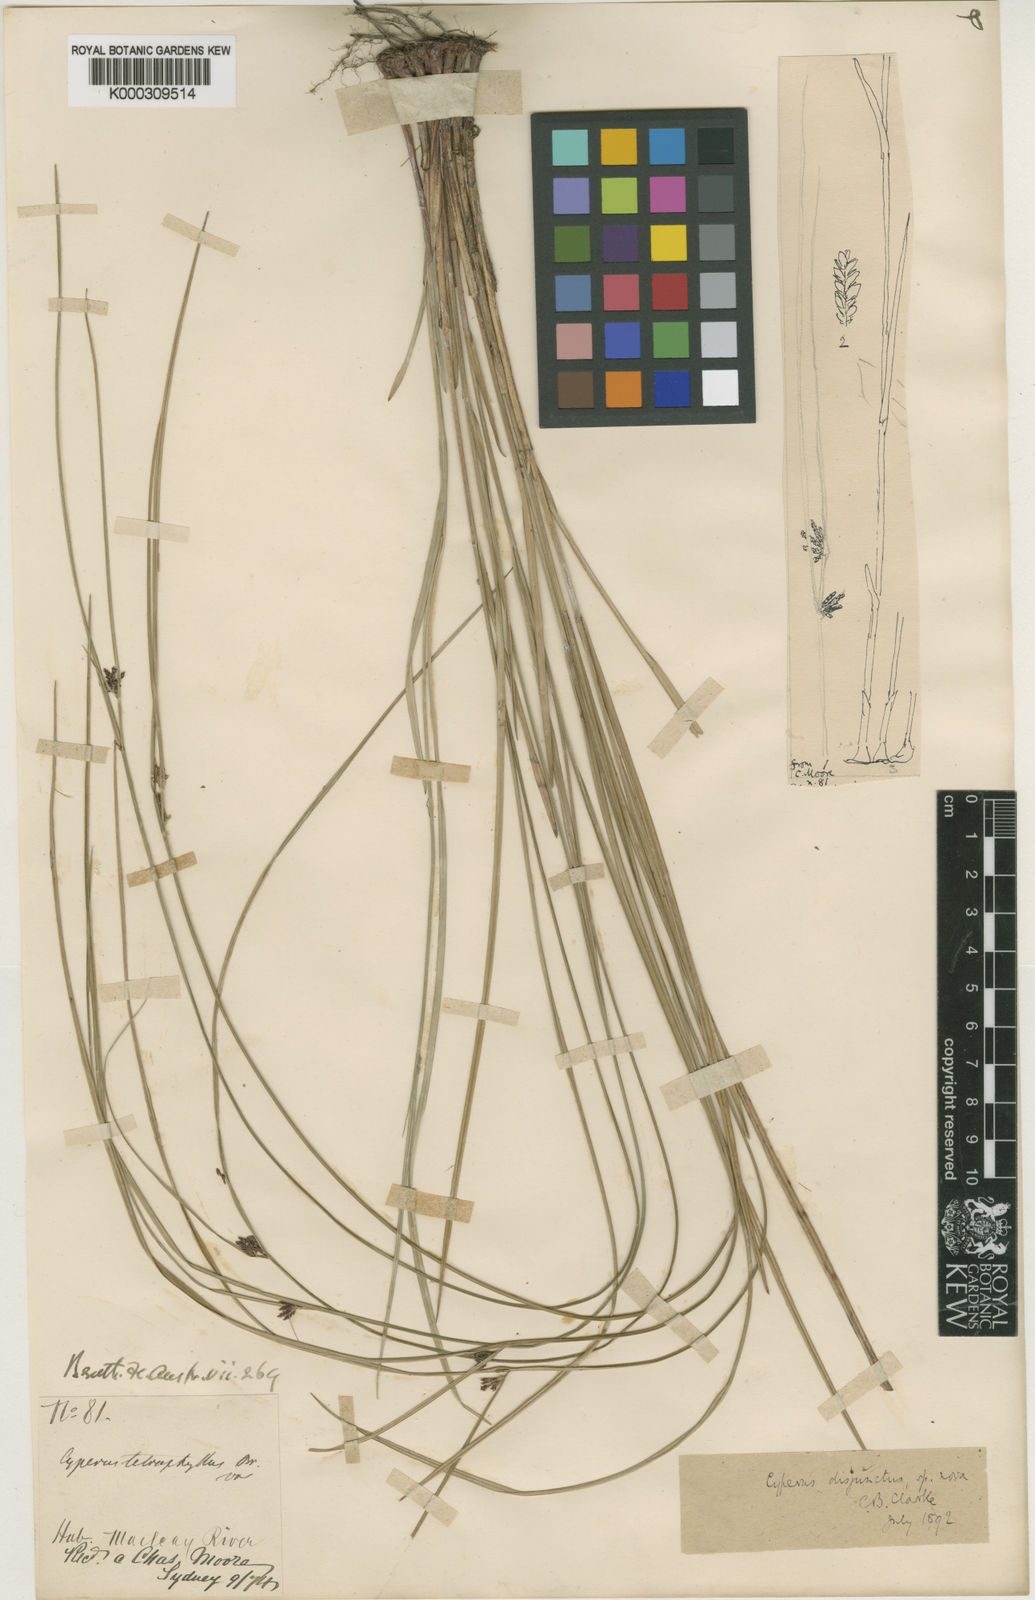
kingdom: Plantae
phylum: Tracheophyta
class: Liliopsida
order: Poales
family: Cyperaceae
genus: Cyperus
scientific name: Cyperus disjunctus
